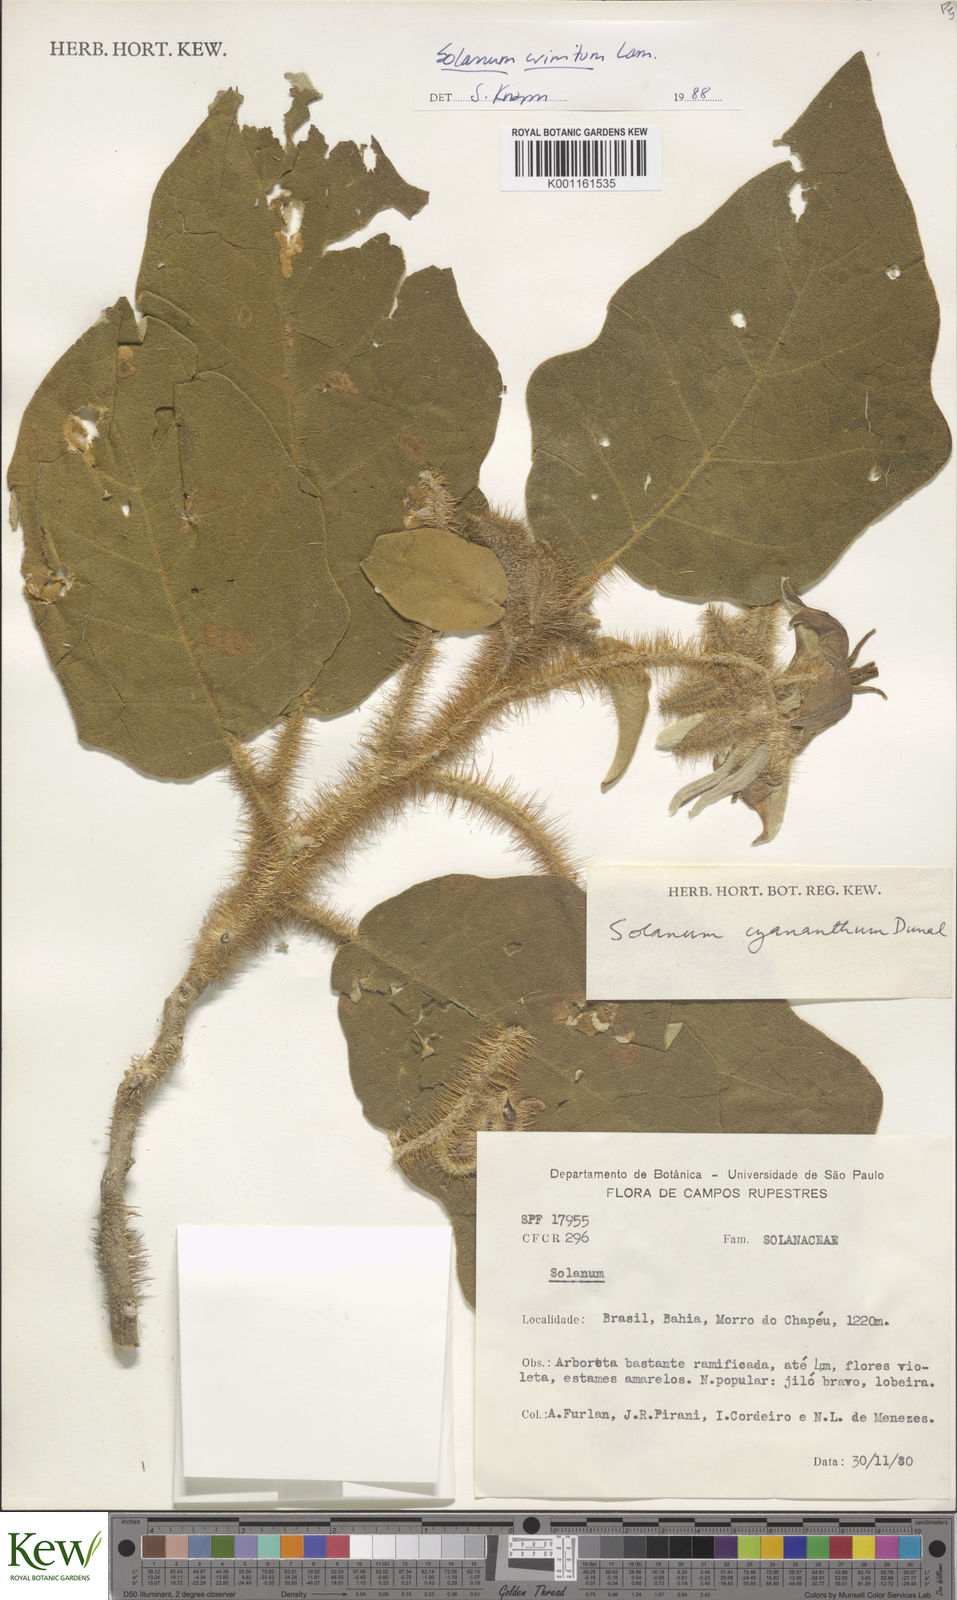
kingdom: Plantae
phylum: Tracheophyta
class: Magnoliopsida
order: Solanales
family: Solanaceae
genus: Solanum
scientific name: Solanum crinitum
